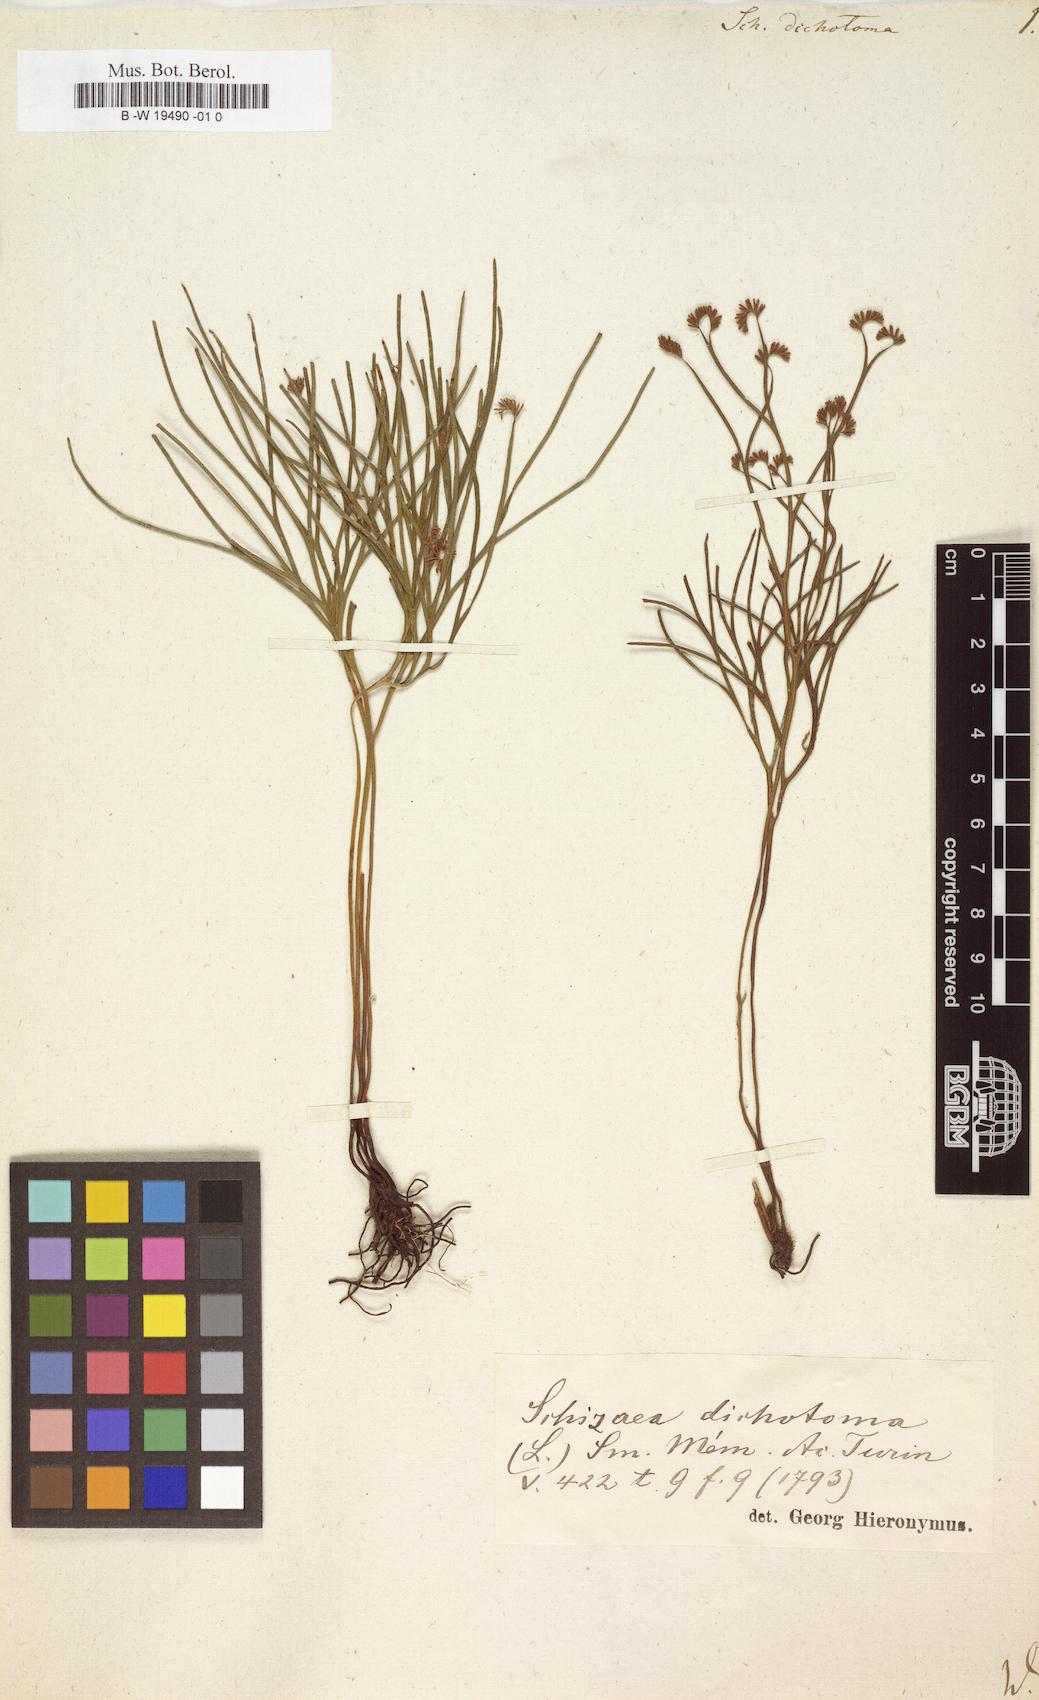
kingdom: Plantae
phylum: Tracheophyta
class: Polypodiopsida
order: Schizaeales
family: Schizaeaceae
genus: Schizaea
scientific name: Schizaea dichotoma
